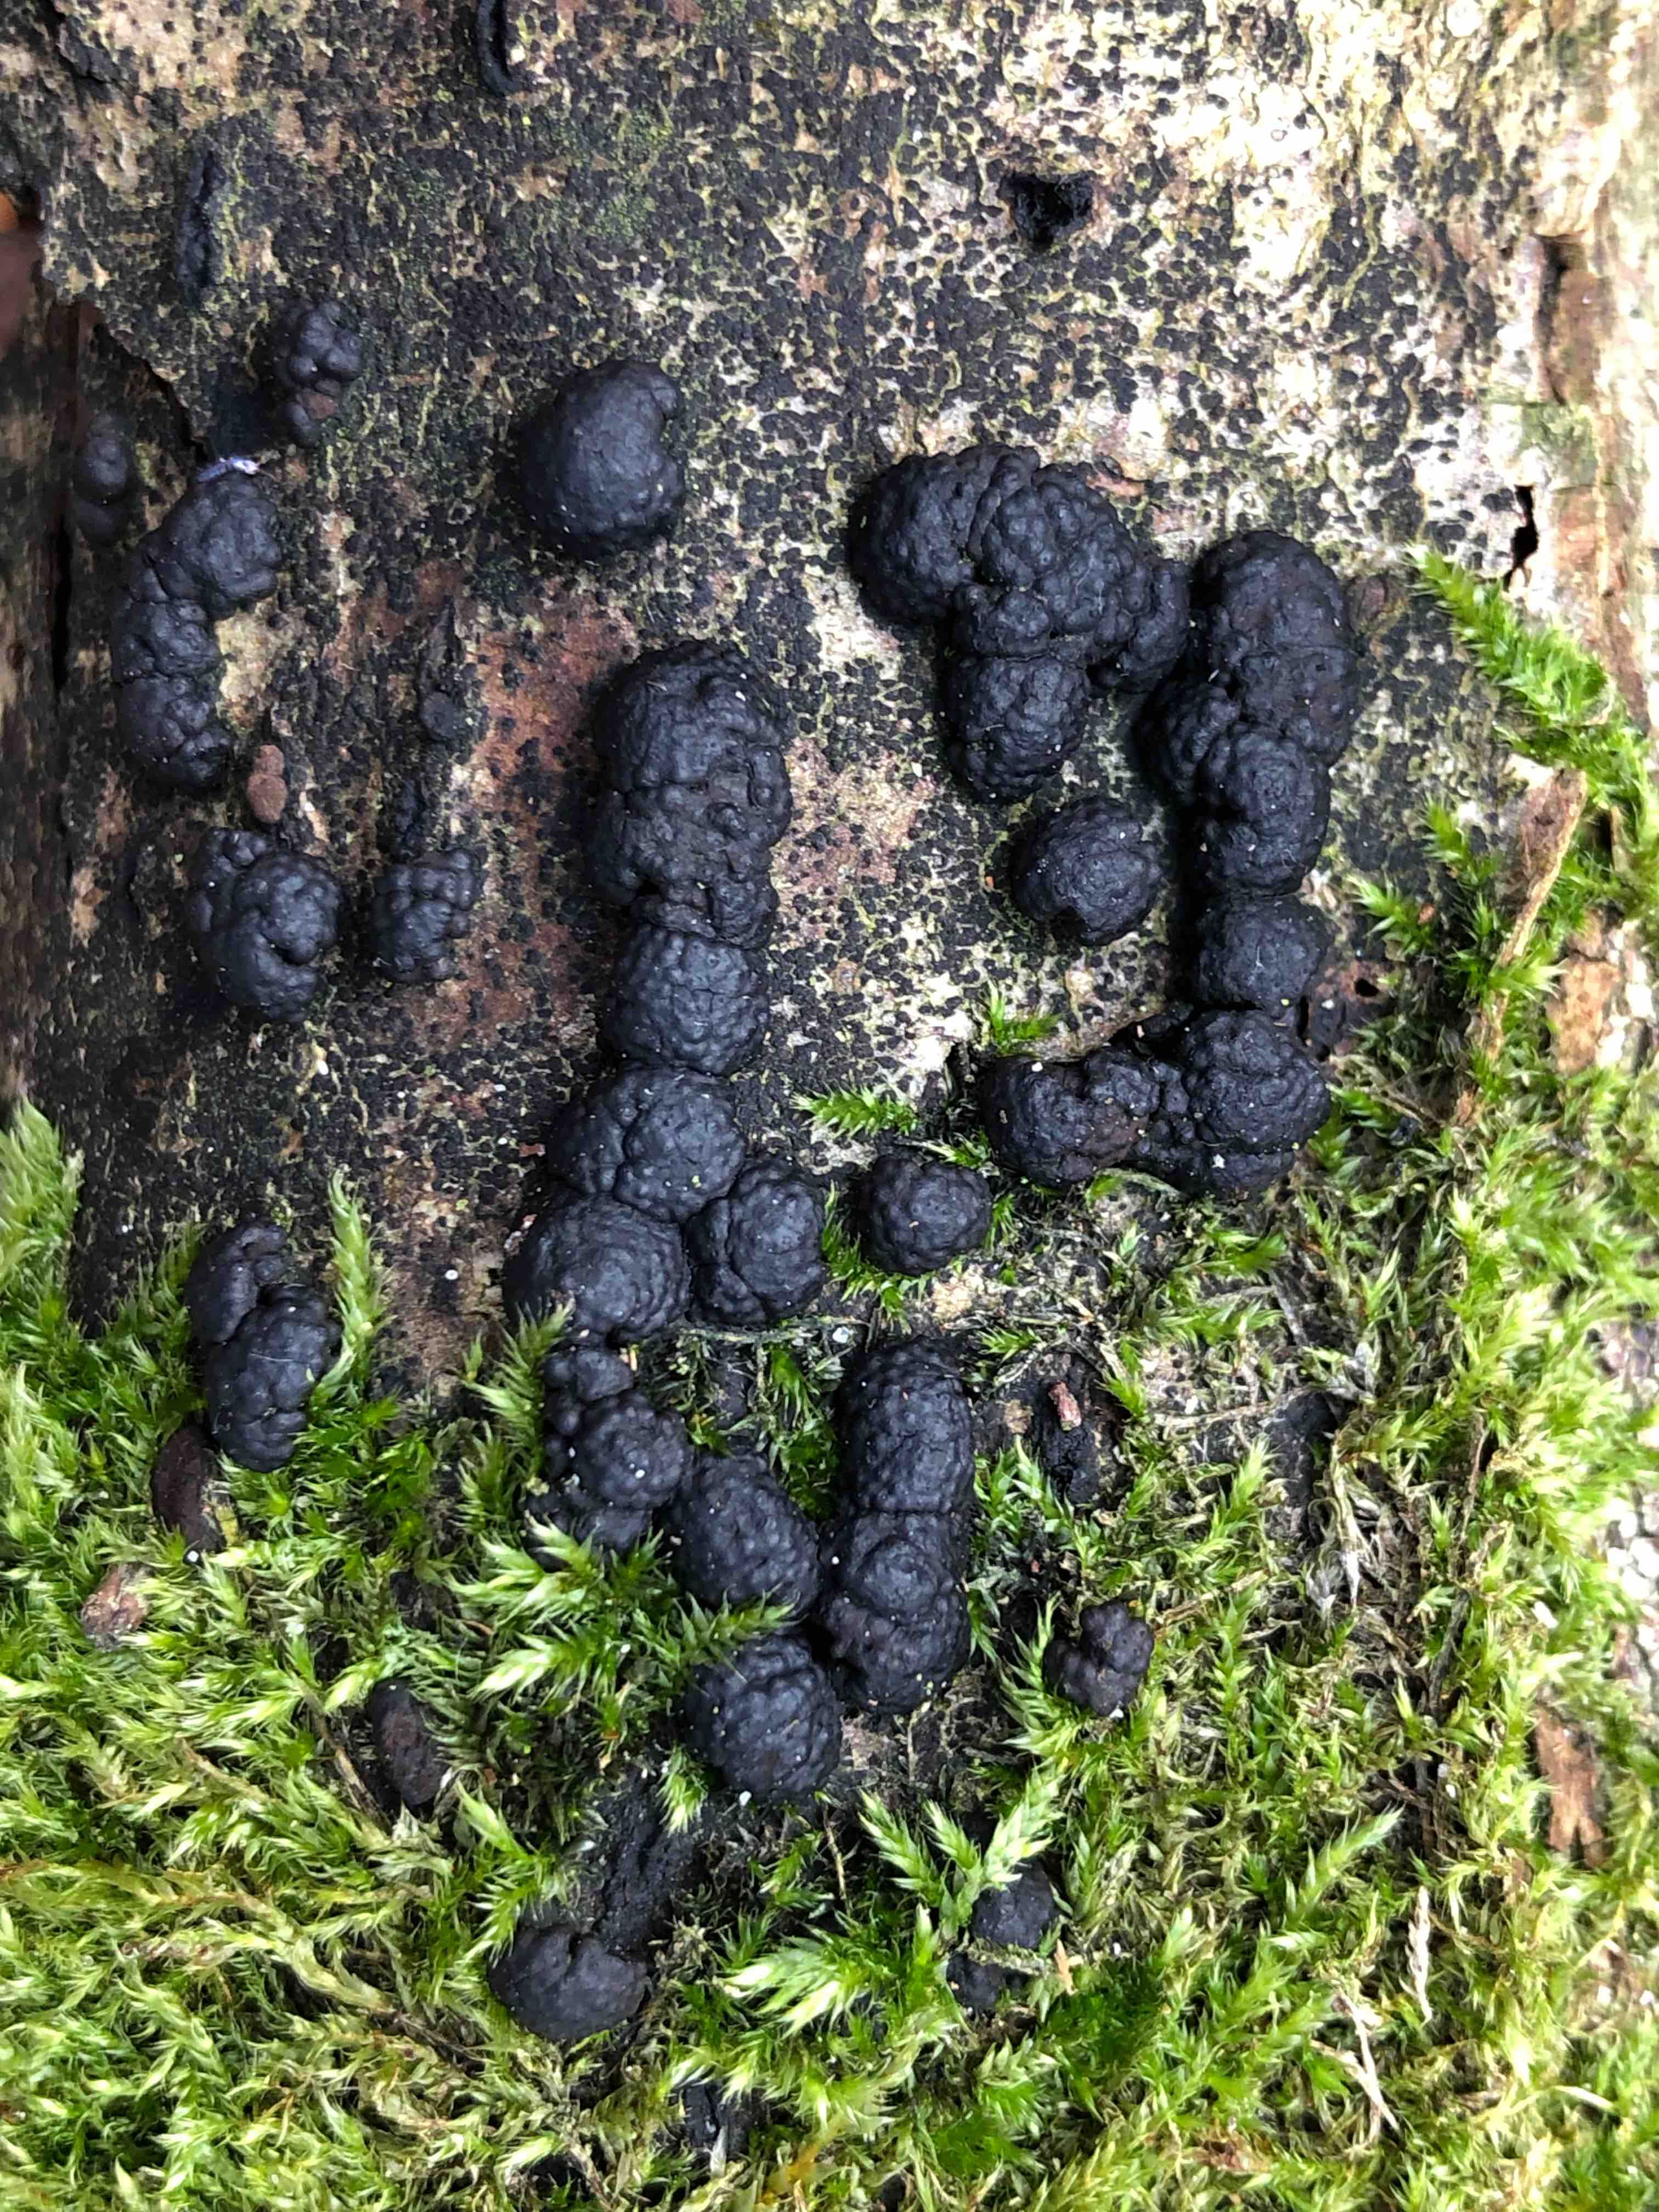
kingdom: Fungi
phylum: Ascomycota
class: Sordariomycetes
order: Xylariales
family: Hypoxylaceae
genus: Jackrogersella
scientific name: Jackrogersella cohaerens
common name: sammenflydende kulbær
